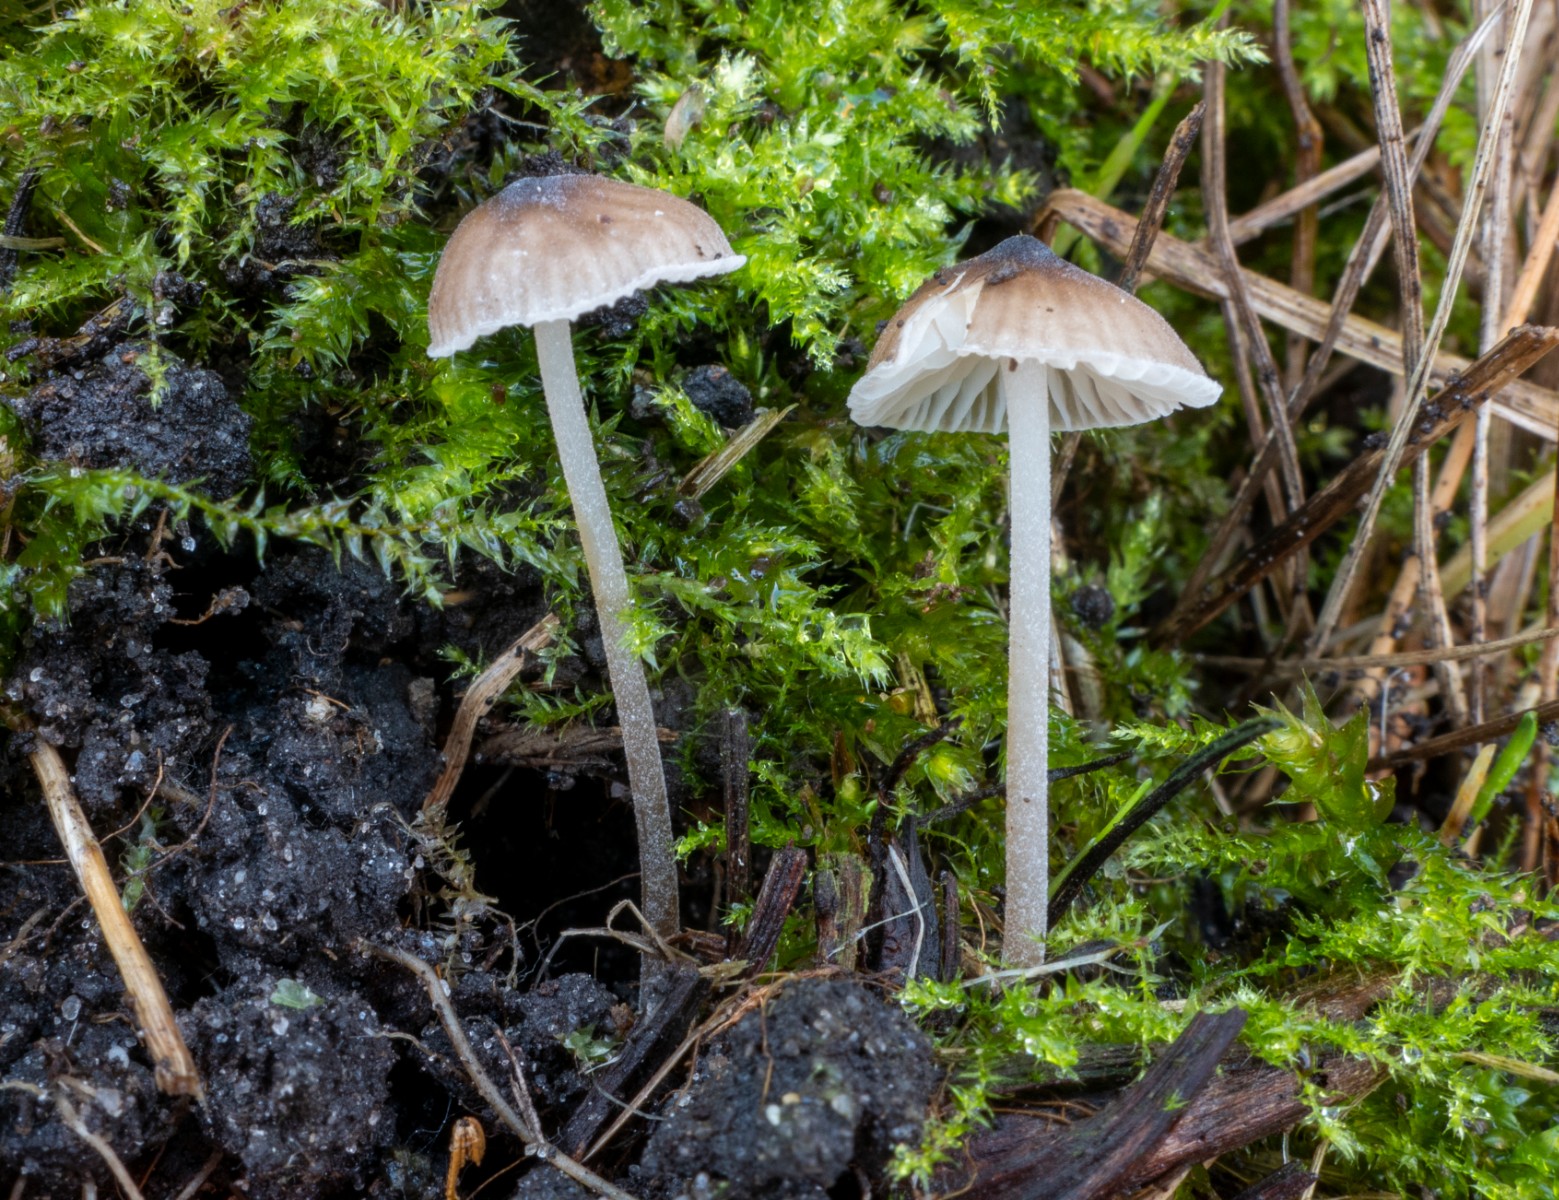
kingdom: Fungi
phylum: Basidiomycota
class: Agaricomycetes
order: Agaricales
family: Tricholomataceae
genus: Mycenella
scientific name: Mycenella salicina
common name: glatsporet dughat
